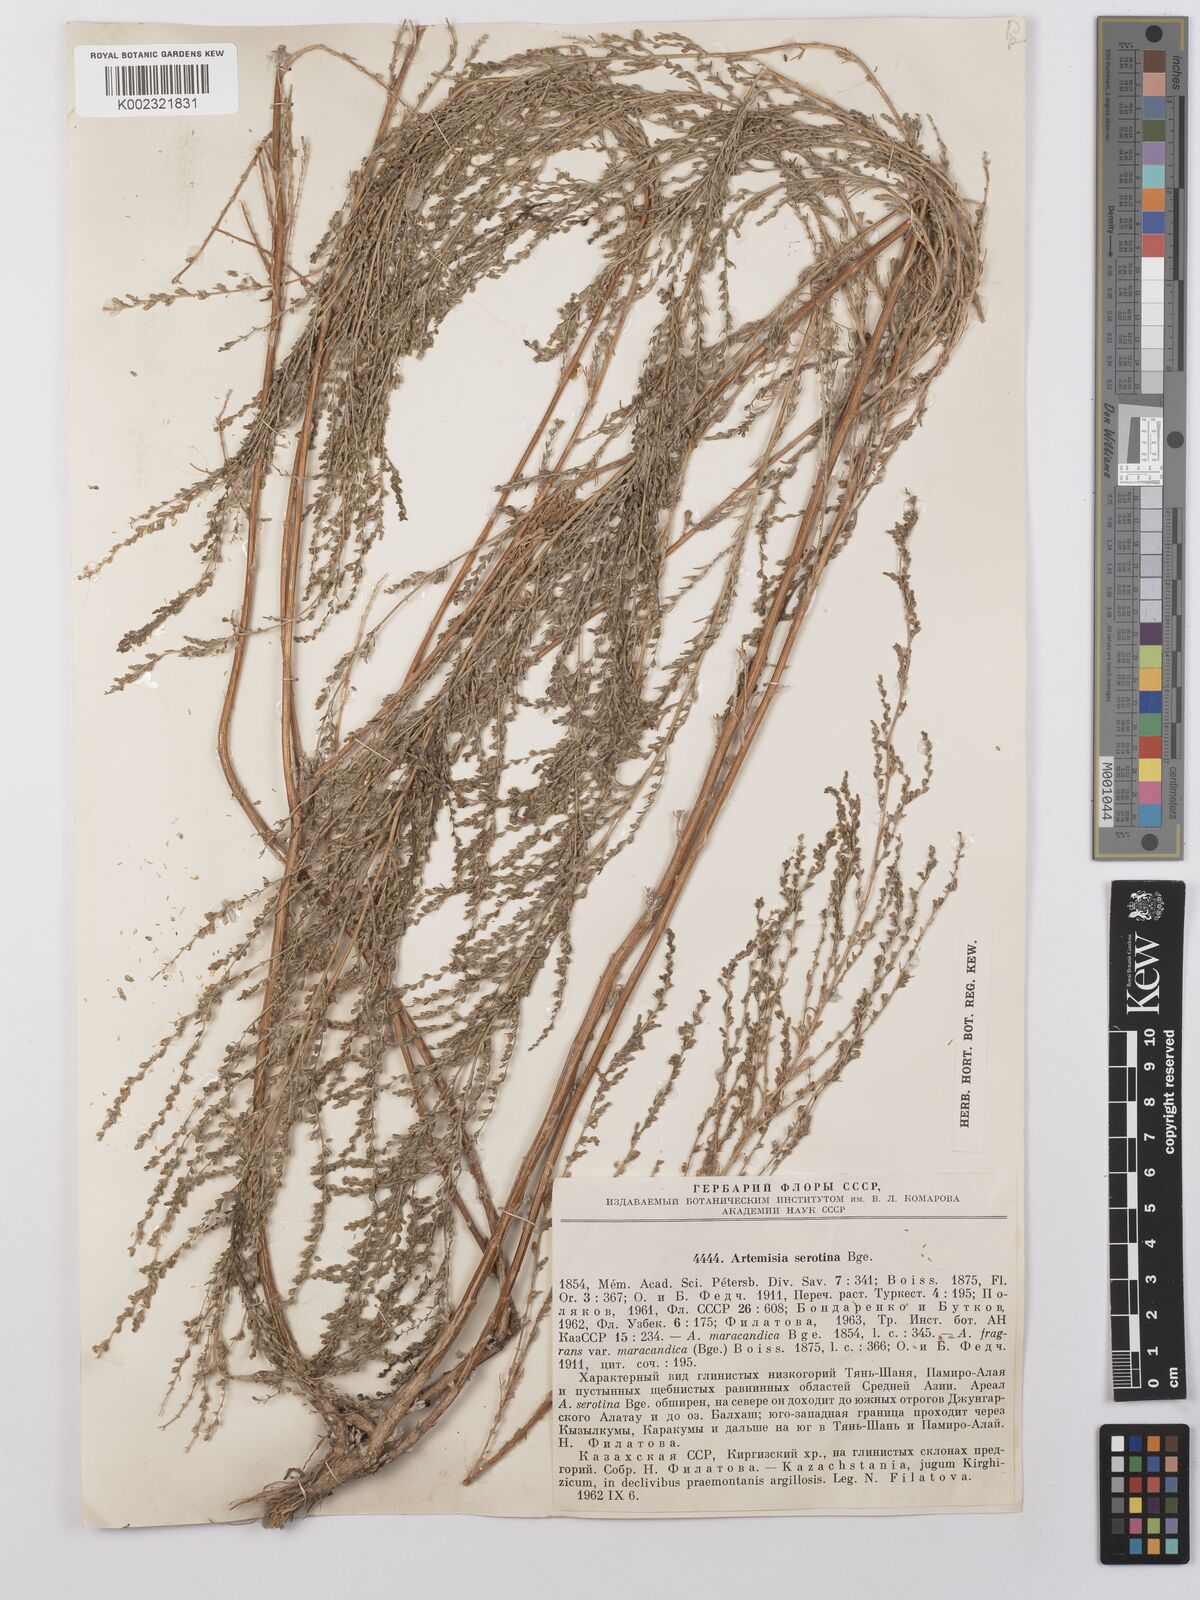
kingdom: Plantae
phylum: Tracheophyta
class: Magnoliopsida
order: Asterales
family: Asteraceae
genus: Artemisia
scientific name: Artemisia oliveriana
